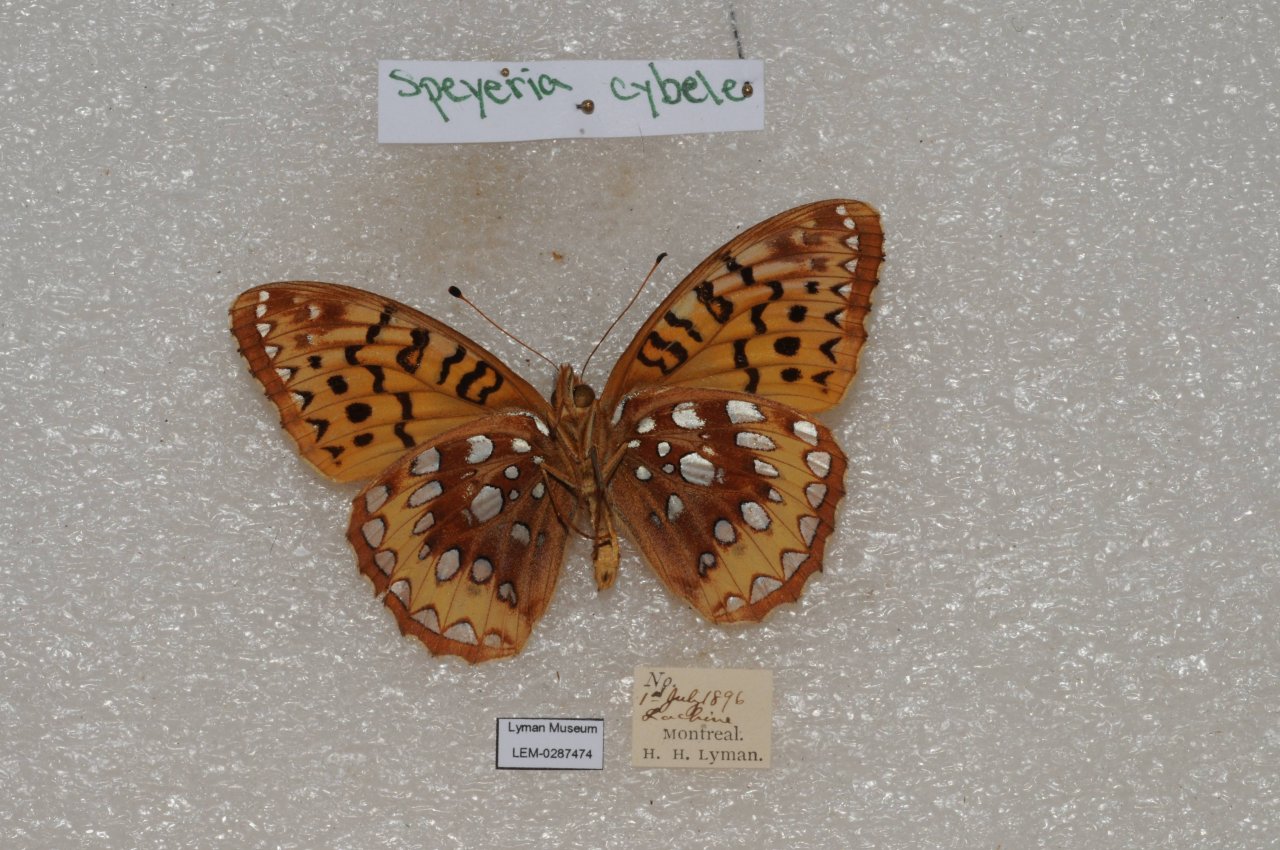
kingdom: Animalia
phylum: Arthropoda
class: Insecta
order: Lepidoptera
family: Nymphalidae
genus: Speyeria
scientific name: Speyeria cybele
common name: Great Spangled Fritillary
